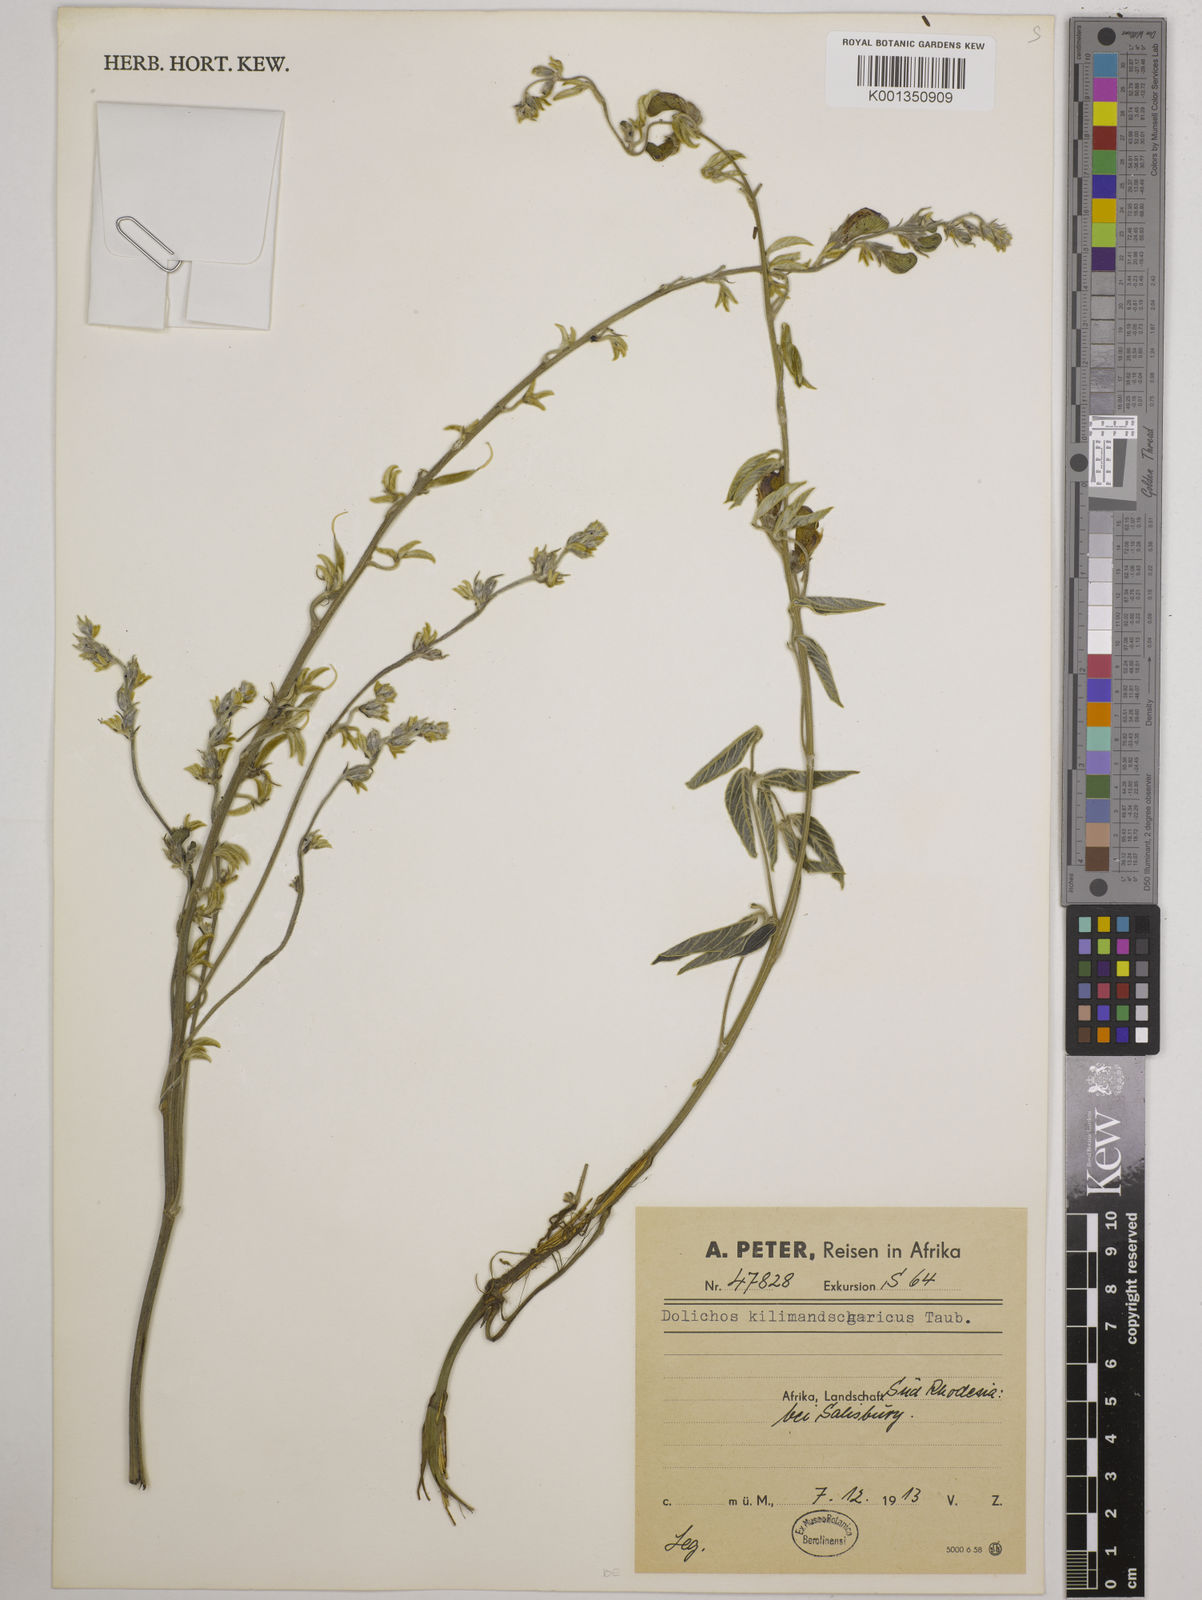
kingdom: Plantae
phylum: Tracheophyta
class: Magnoliopsida
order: Fabales
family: Fabaceae
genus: Dolichos
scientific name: Dolichos kilimandscharicus
